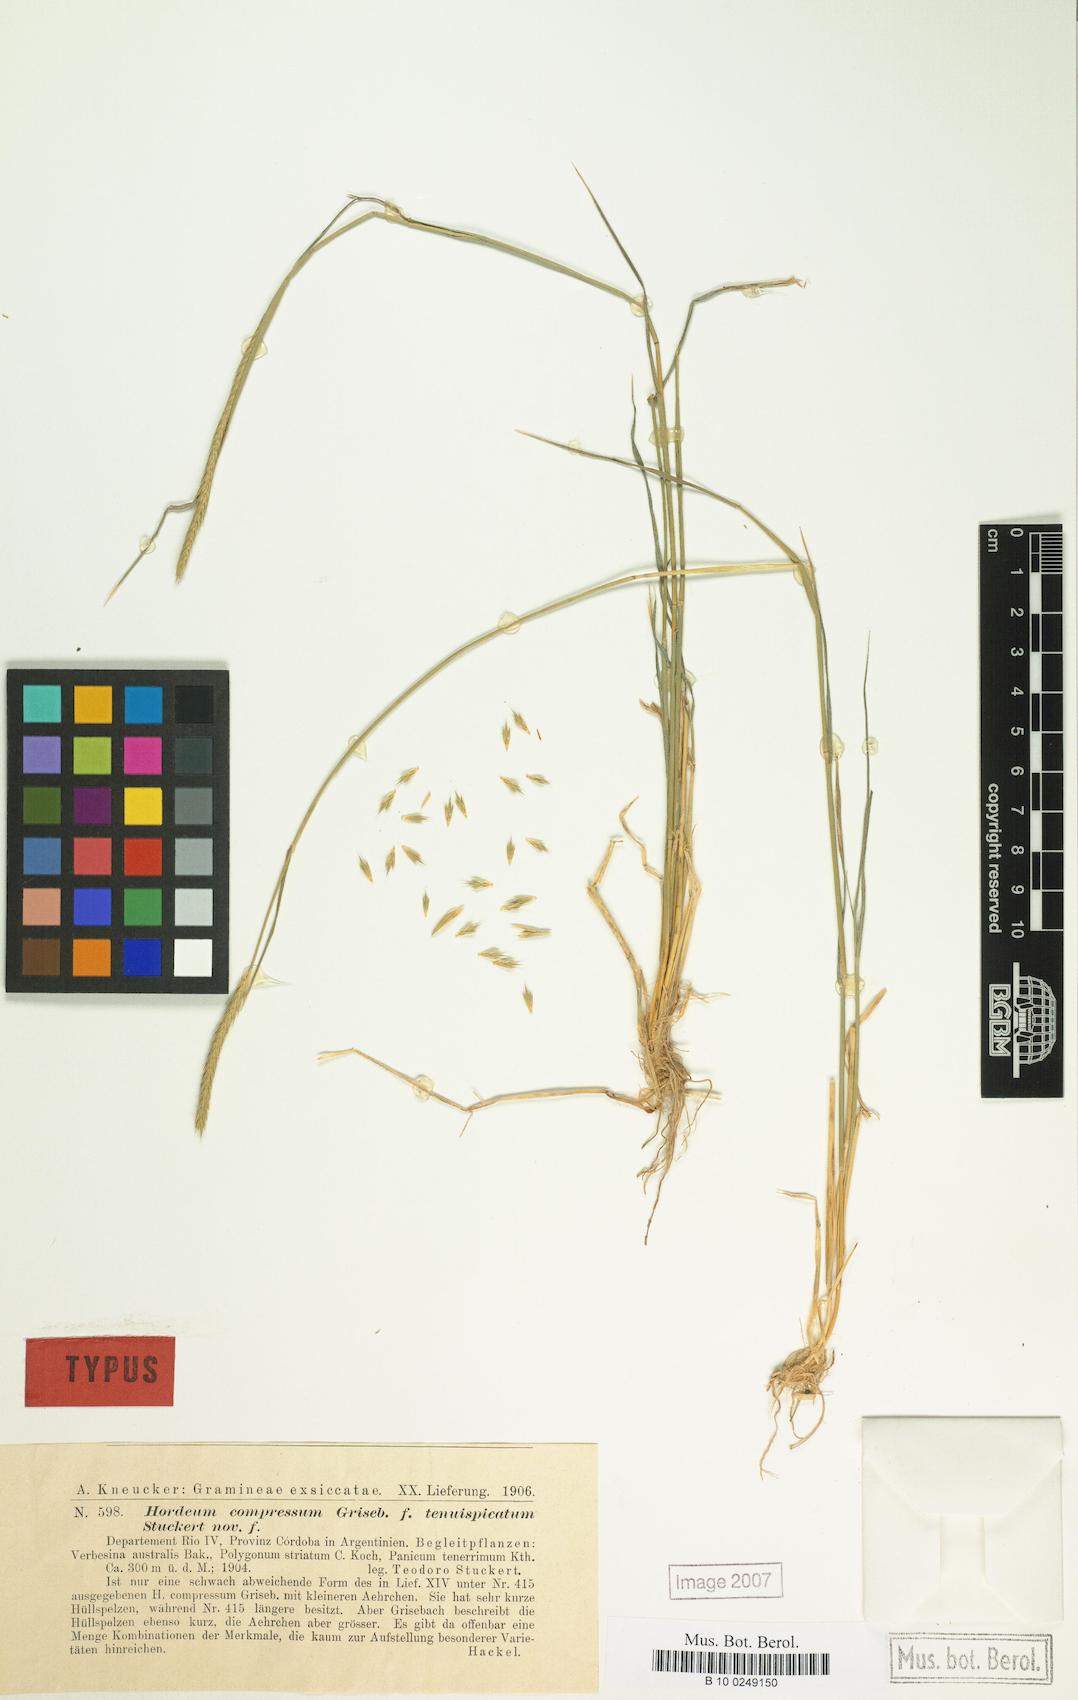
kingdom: Plantae
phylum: Tracheophyta
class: Liliopsida
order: Poales
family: Poaceae
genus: Hordeum
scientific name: Hordeum stenostachys
